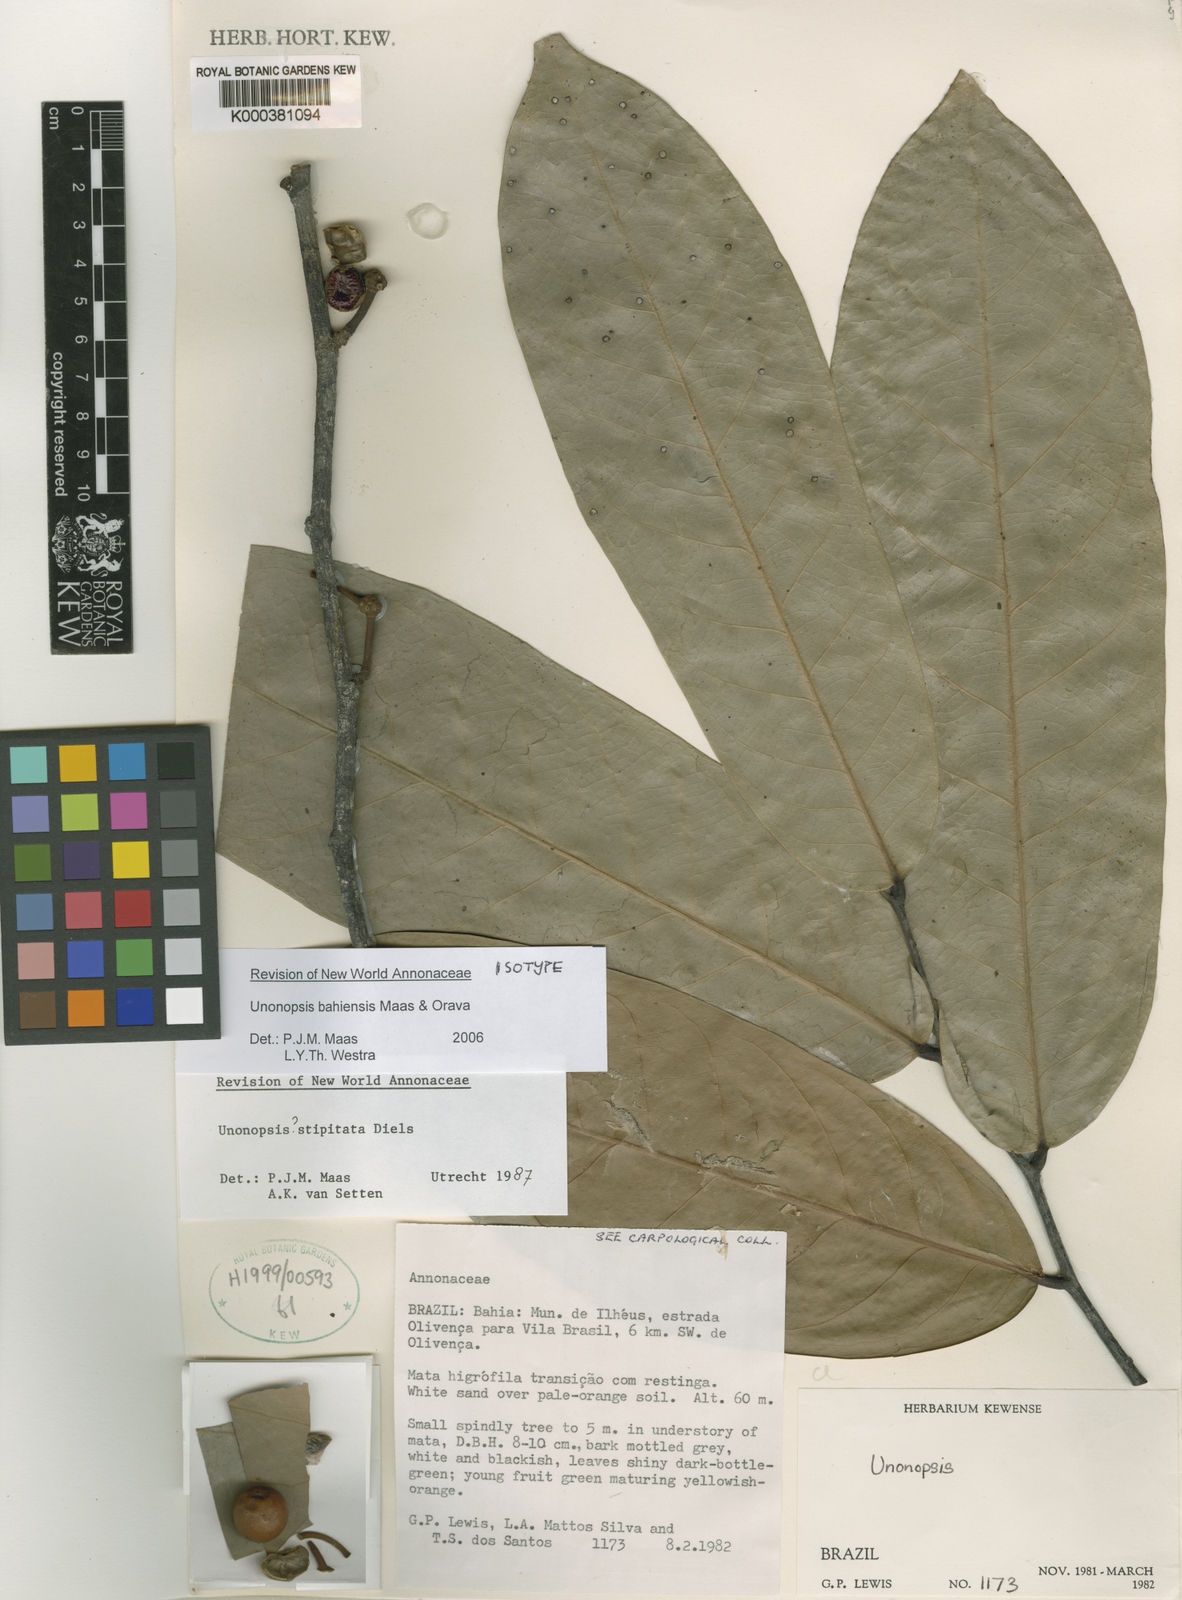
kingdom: Plantae
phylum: Tracheophyta
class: Magnoliopsida
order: Magnoliales
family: Annonaceae
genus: Unonopsis
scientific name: Unonopsis bahiensis
